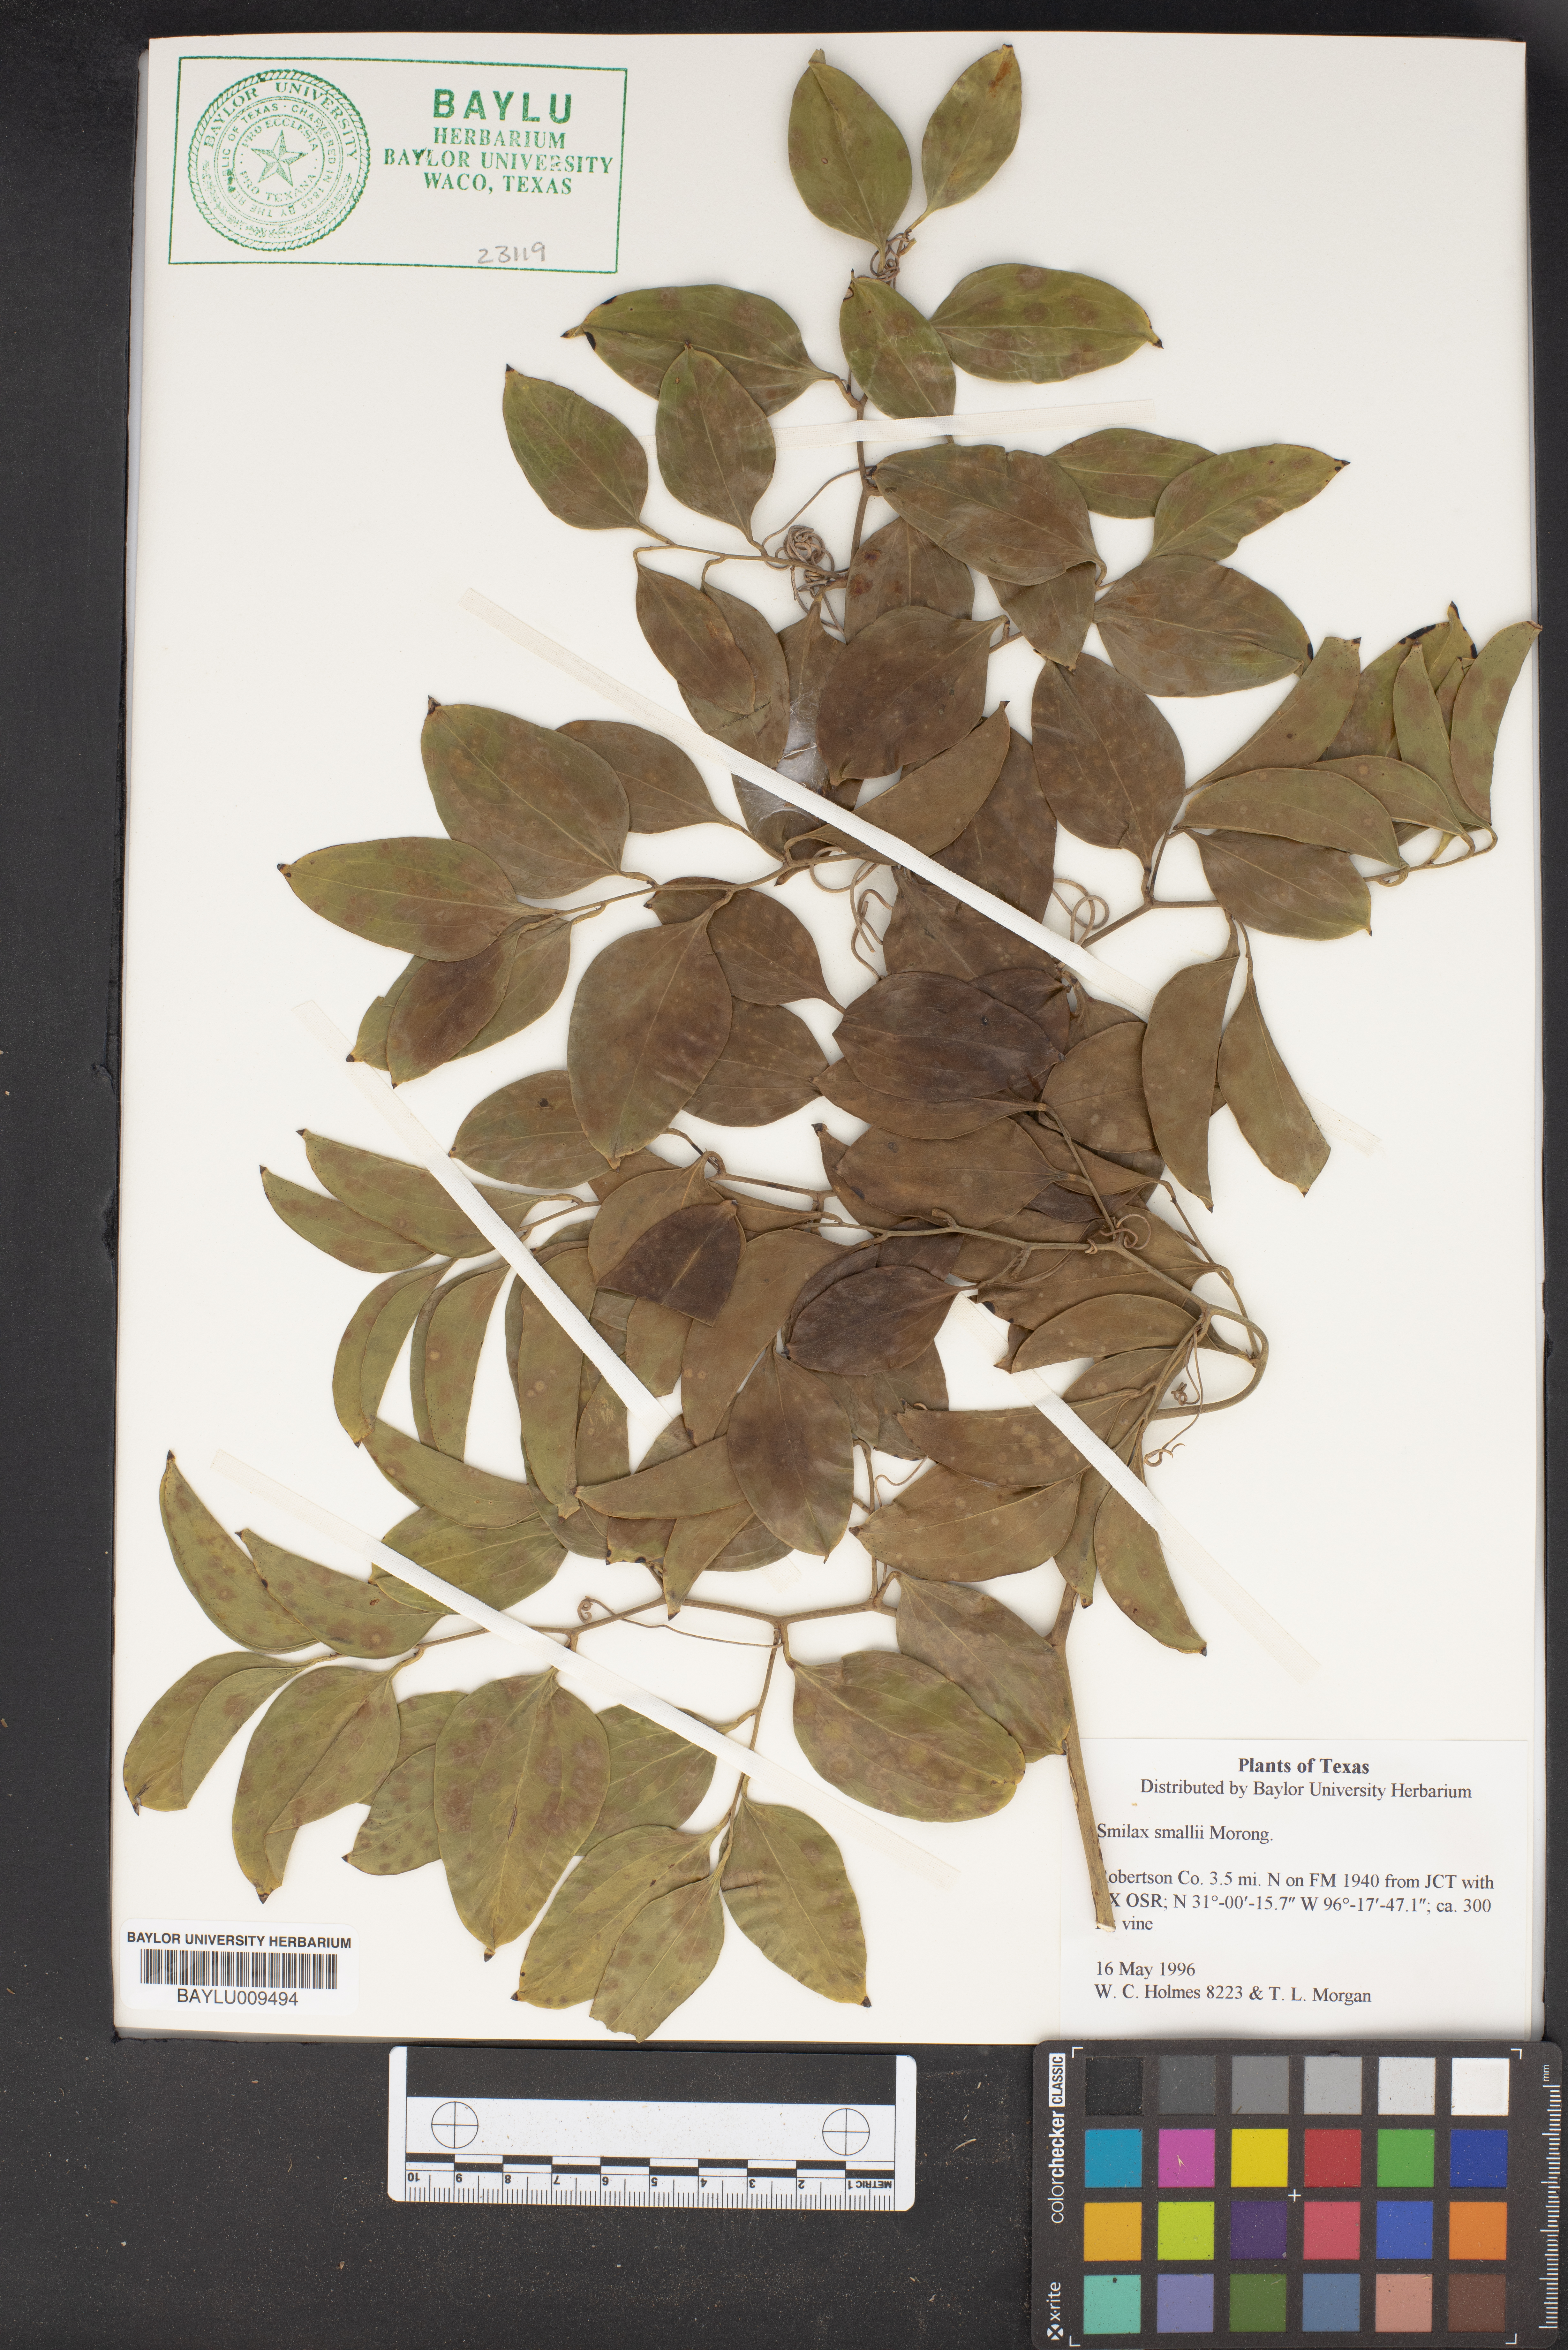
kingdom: Plantae
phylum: Tracheophyta
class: Liliopsida
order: Liliales
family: Smilacaceae
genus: Smilax
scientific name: Smilax maritima
